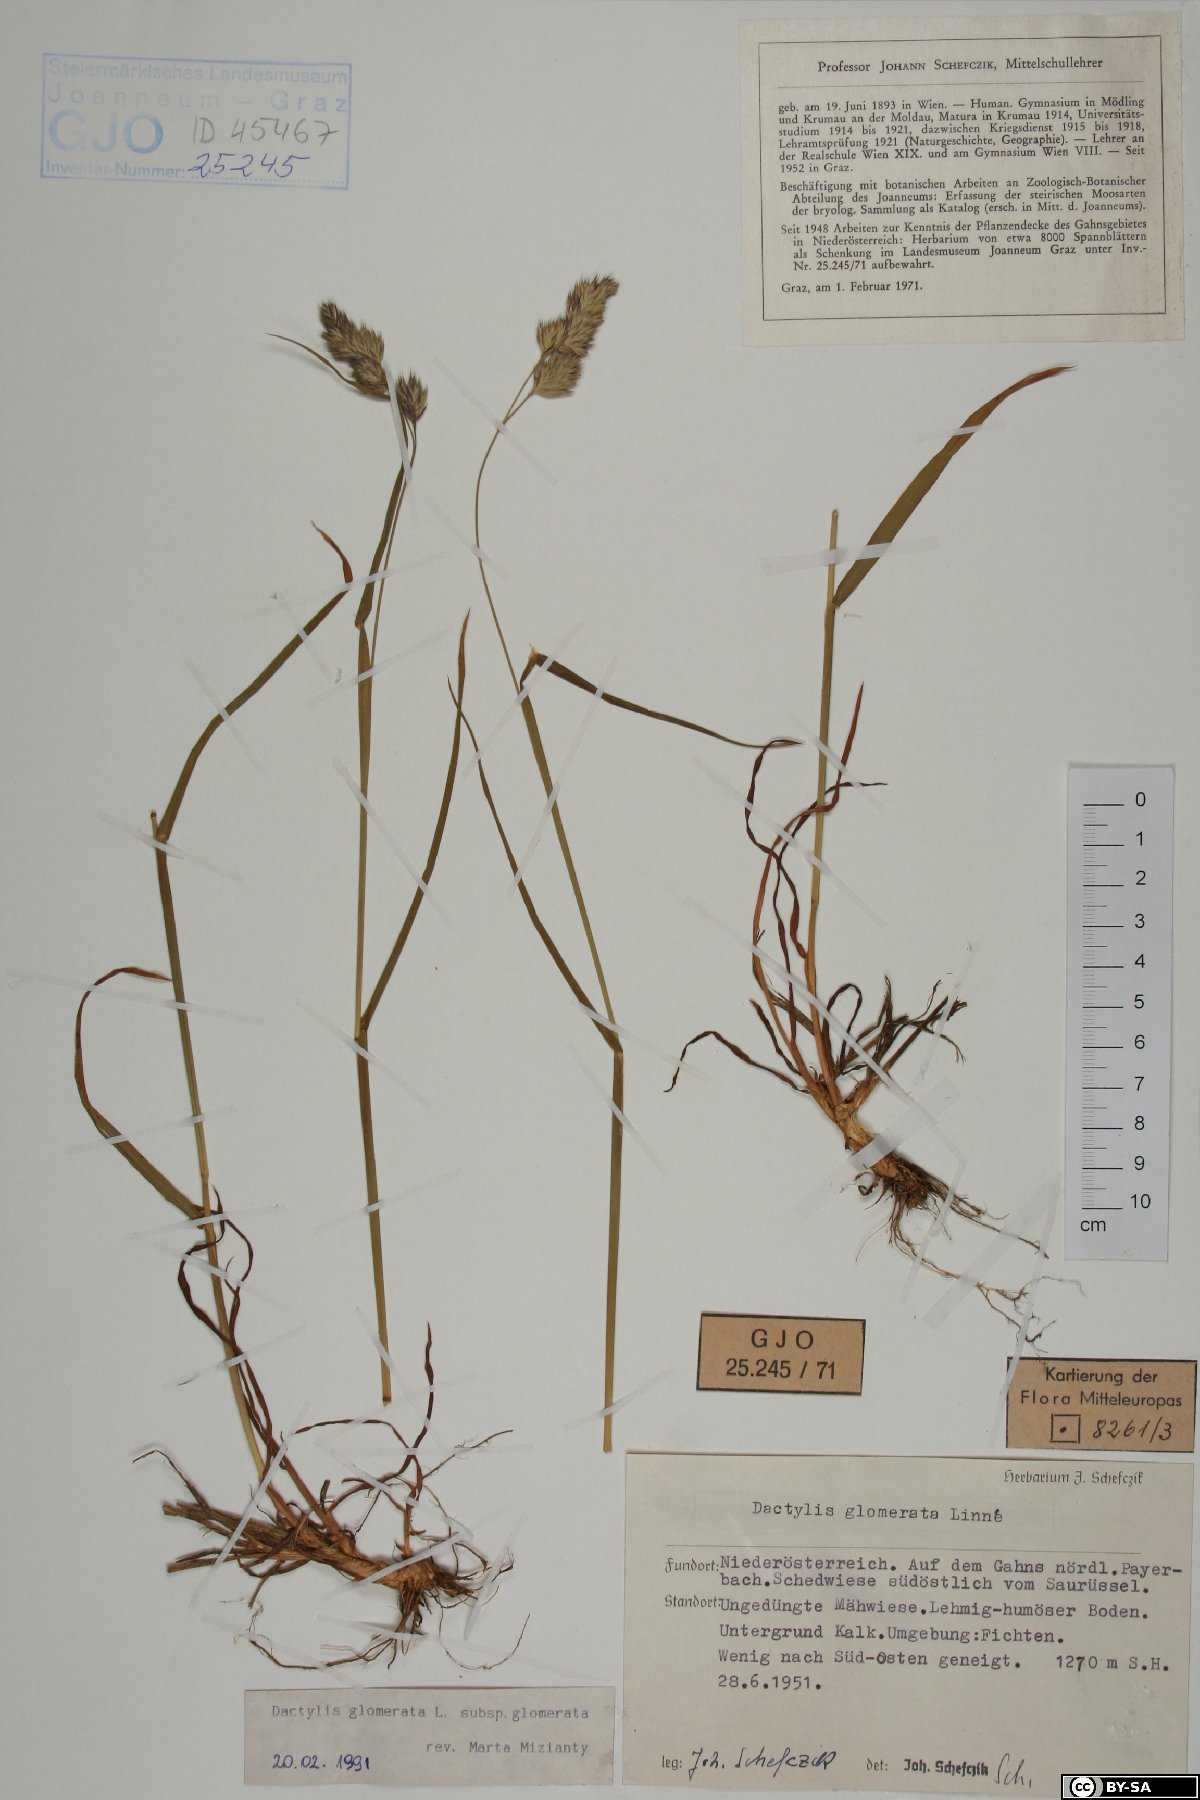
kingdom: Plantae
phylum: Tracheophyta
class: Liliopsida
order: Poales
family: Poaceae
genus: Dactylis
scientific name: Dactylis glomerata
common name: Orchardgrass
